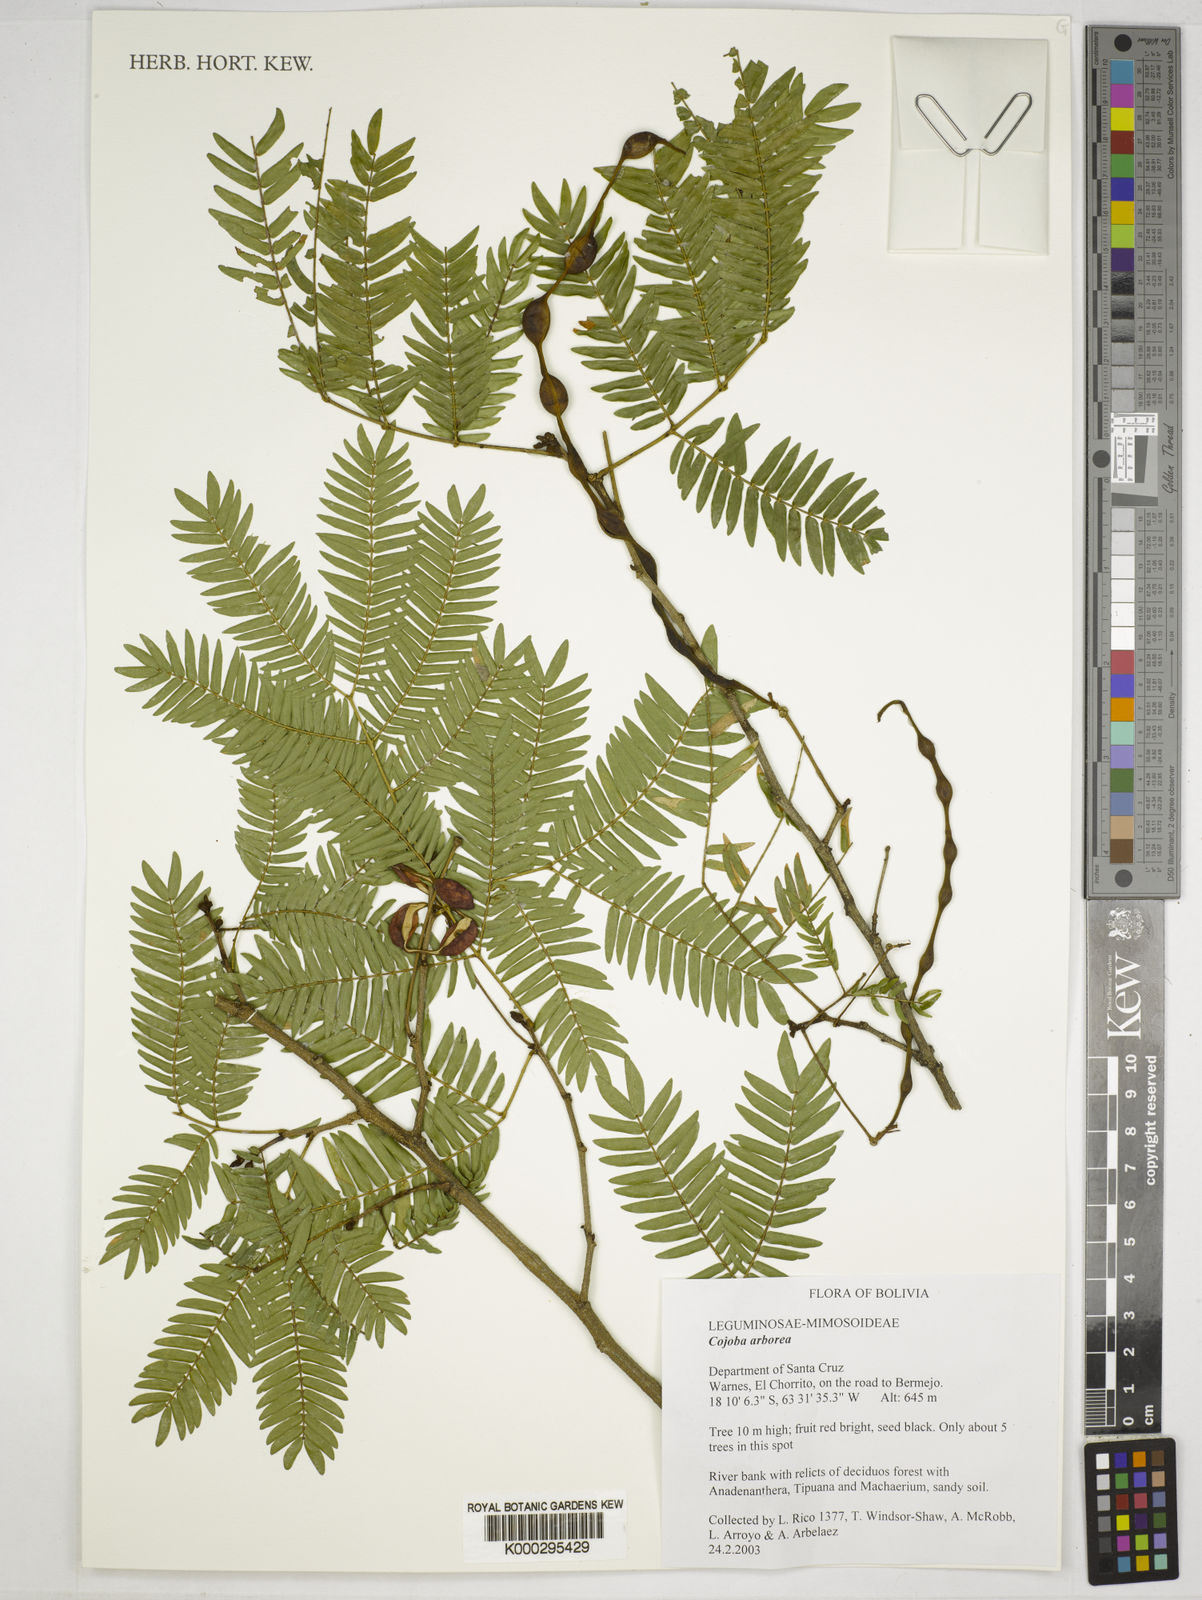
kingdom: Plantae
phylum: Tracheophyta
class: Magnoliopsida
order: Fabales
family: Fabaceae
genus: Cojoba
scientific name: Cojoba arborea
